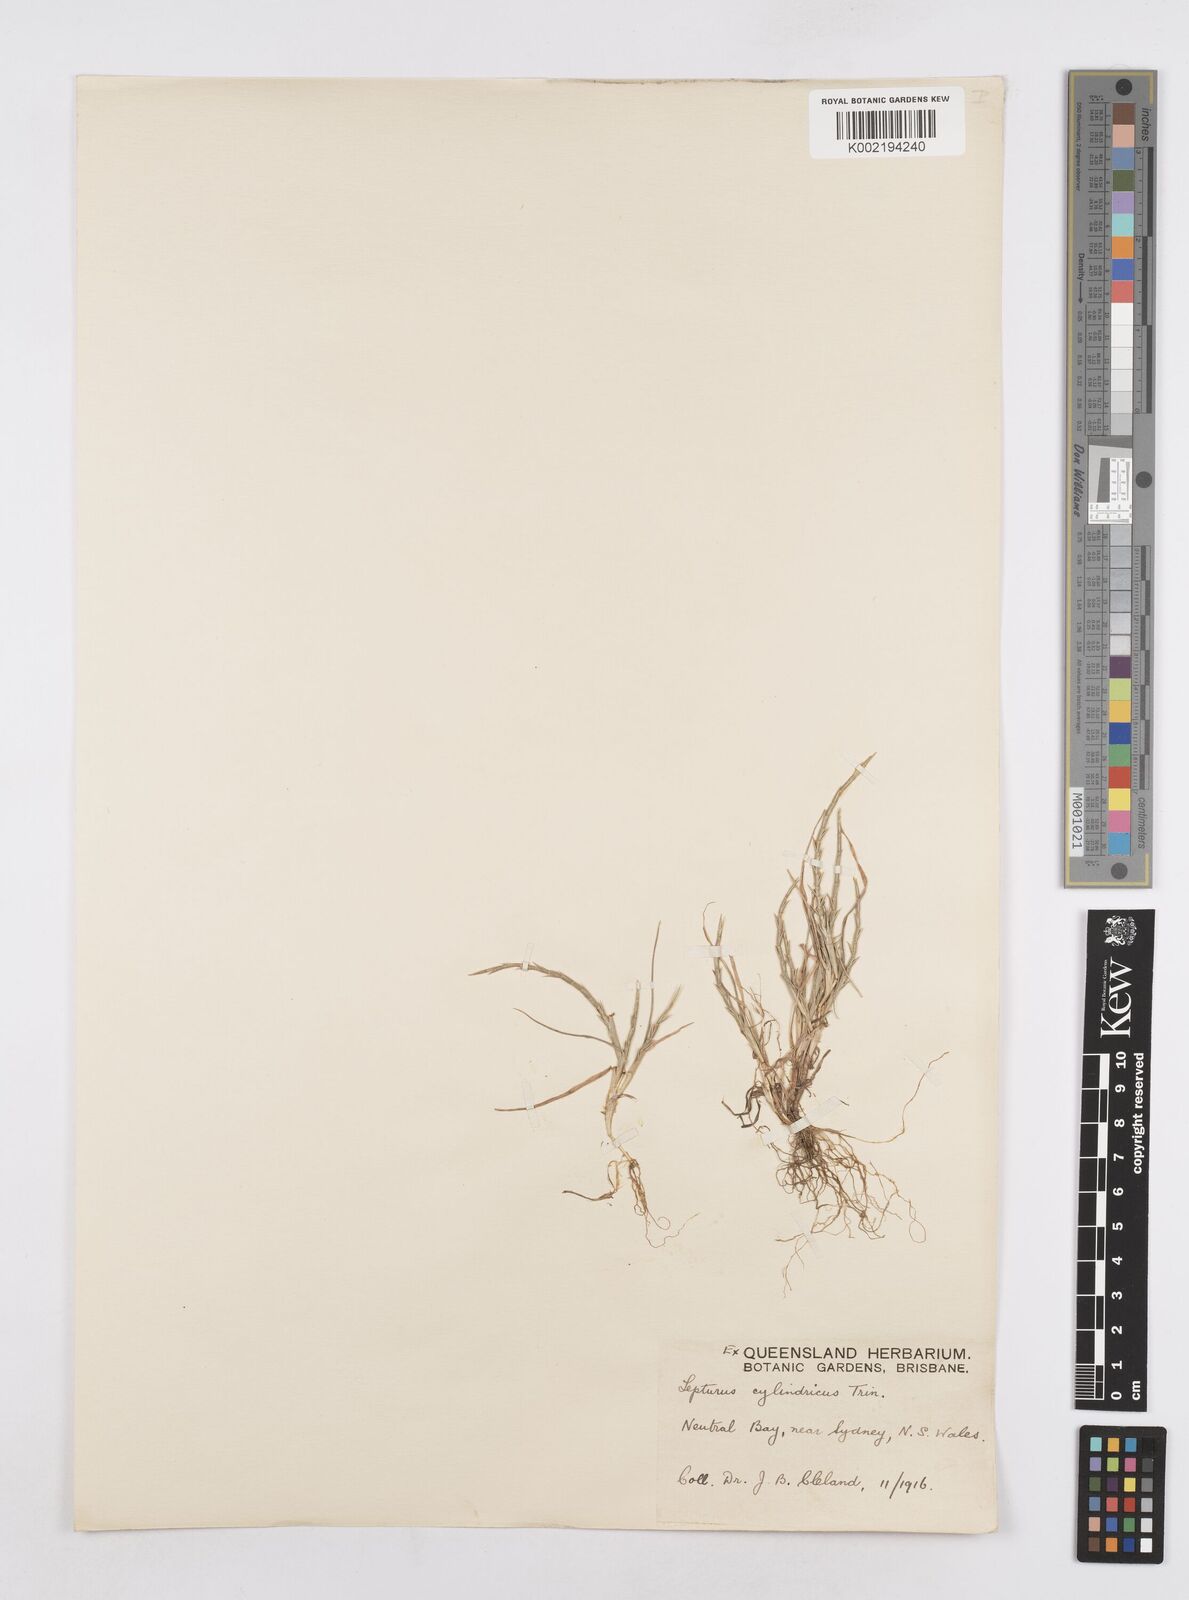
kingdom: Plantae
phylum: Tracheophyta
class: Liliopsida
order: Poales
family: Poaceae
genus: Parapholis
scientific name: Parapholis cylindrica
